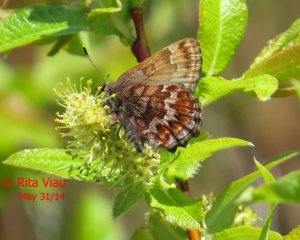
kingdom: Animalia
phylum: Arthropoda
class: Insecta
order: Lepidoptera
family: Lycaenidae
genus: Incisalia
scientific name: Incisalia niphon
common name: Eastern Pine Elfin
